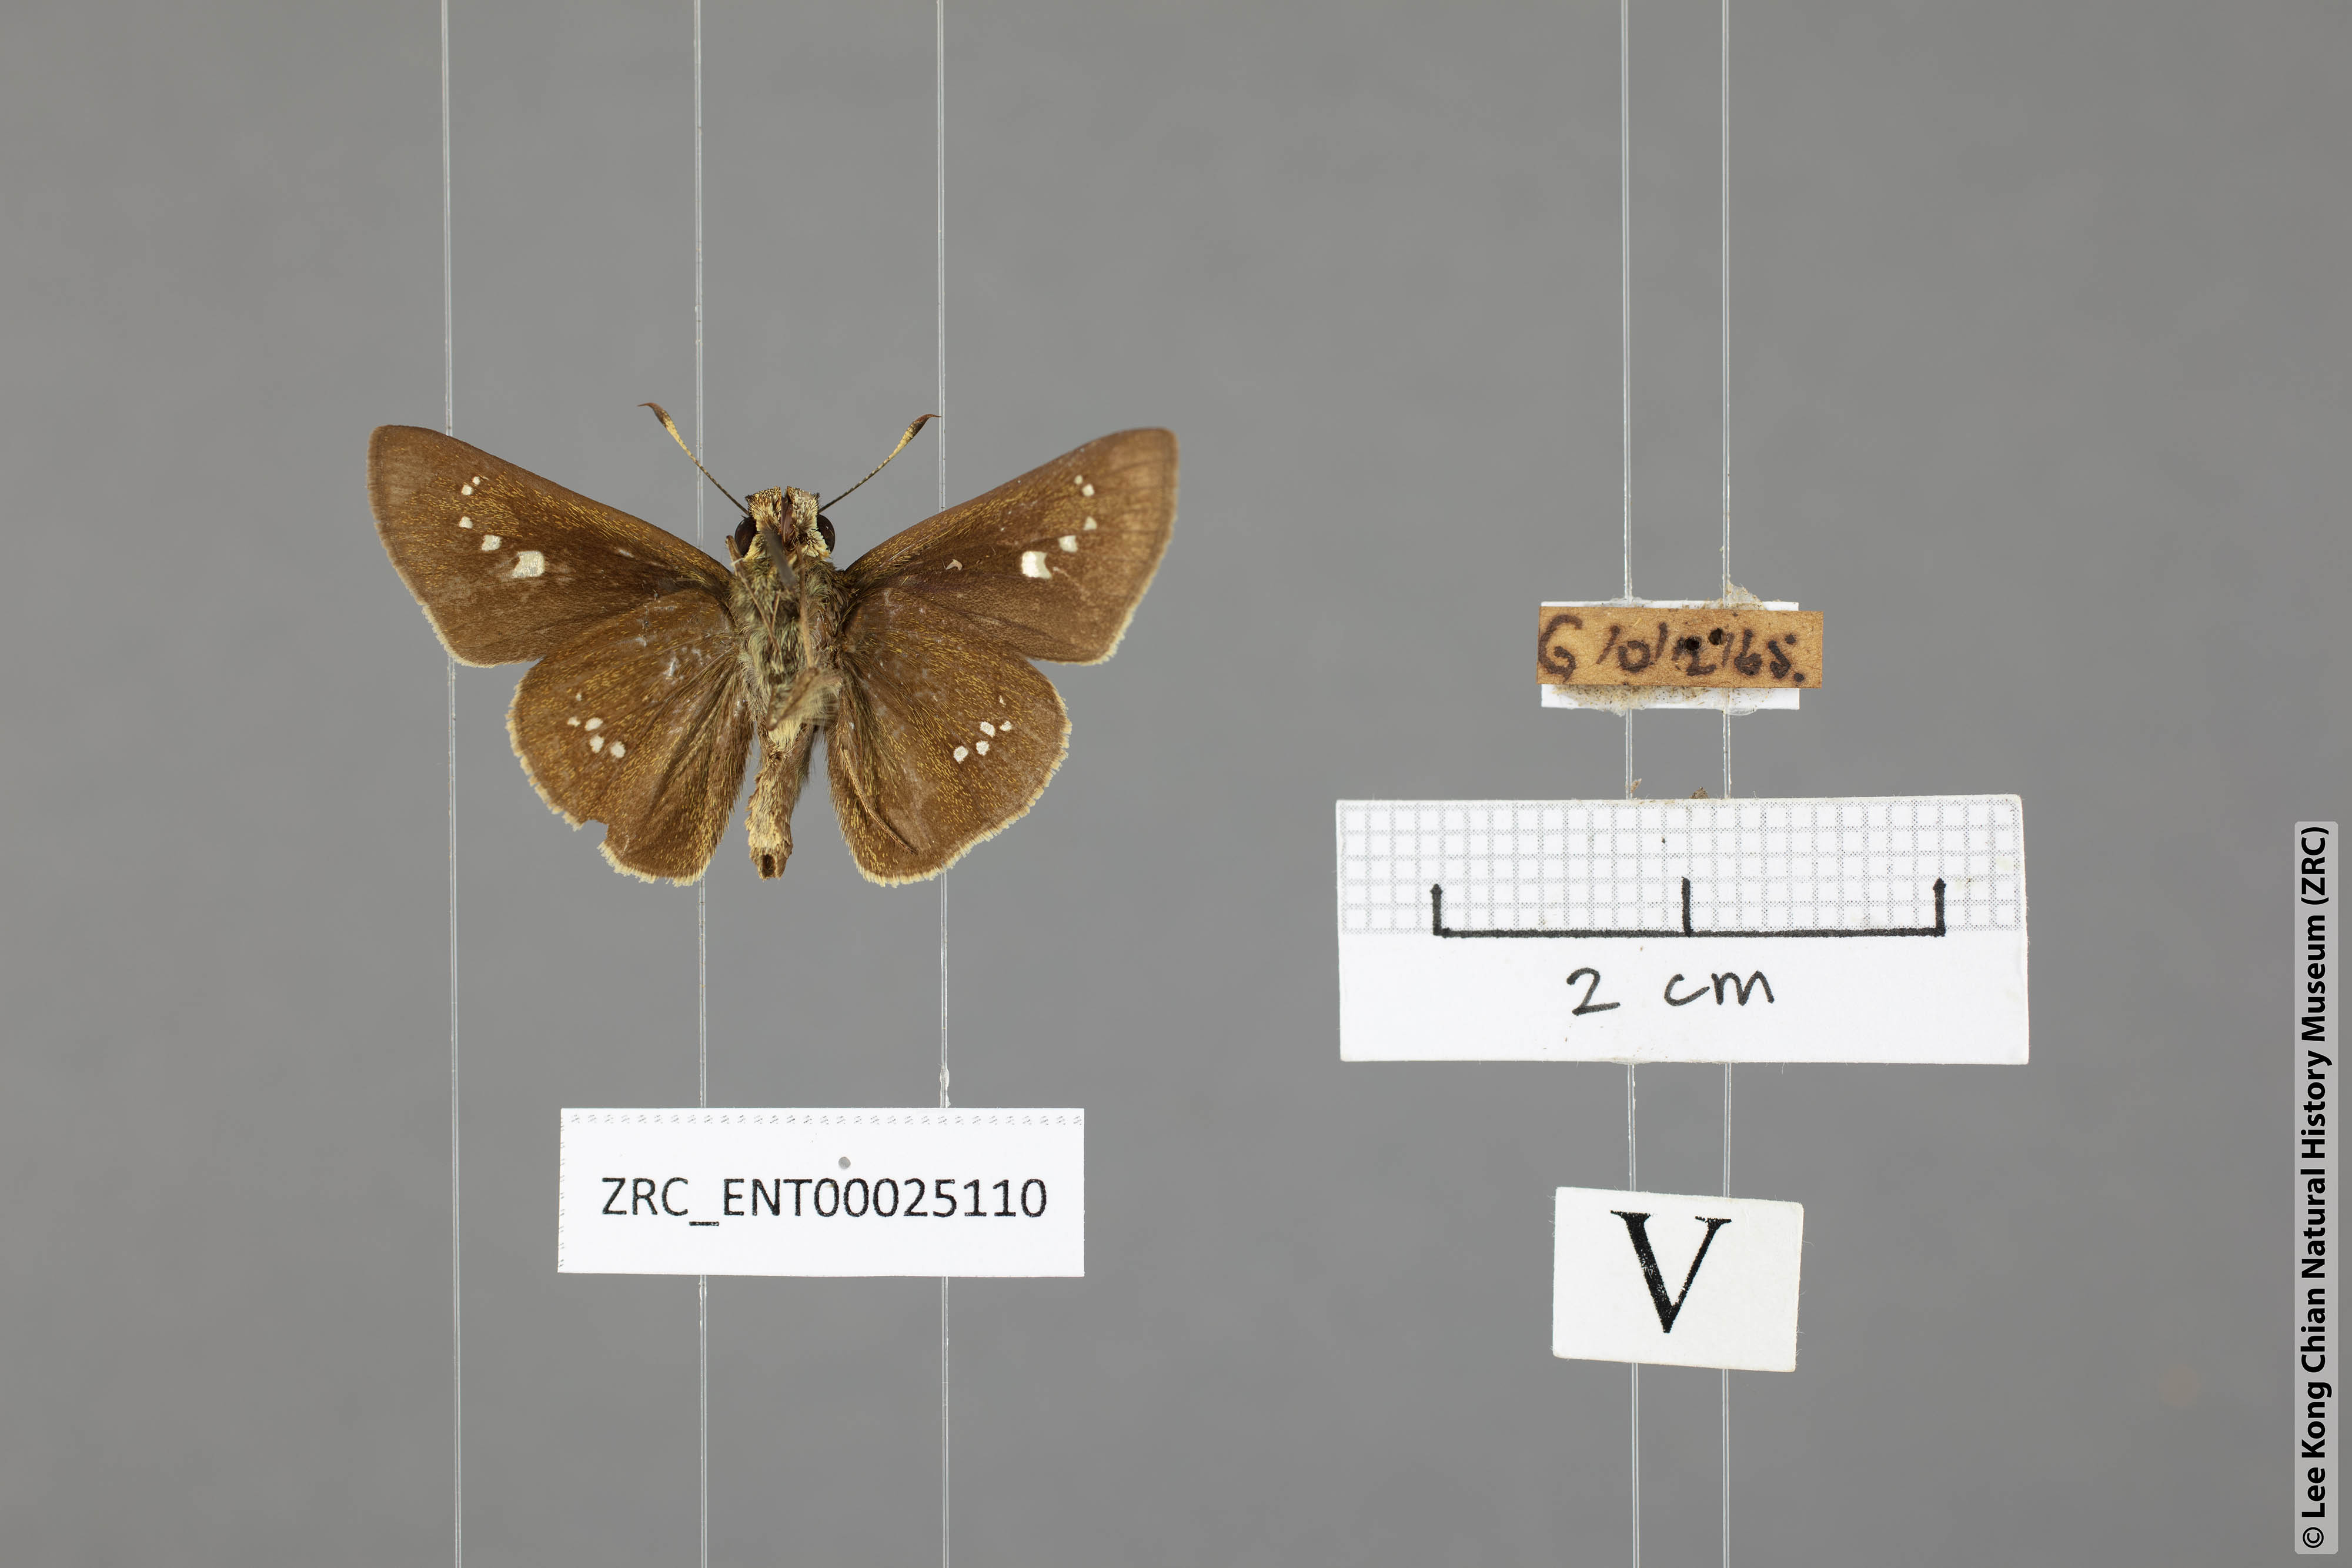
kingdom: Animalia
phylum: Arthropoda
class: Insecta
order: Lepidoptera
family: Hesperiidae
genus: Parnara
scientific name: Parnara apostata
